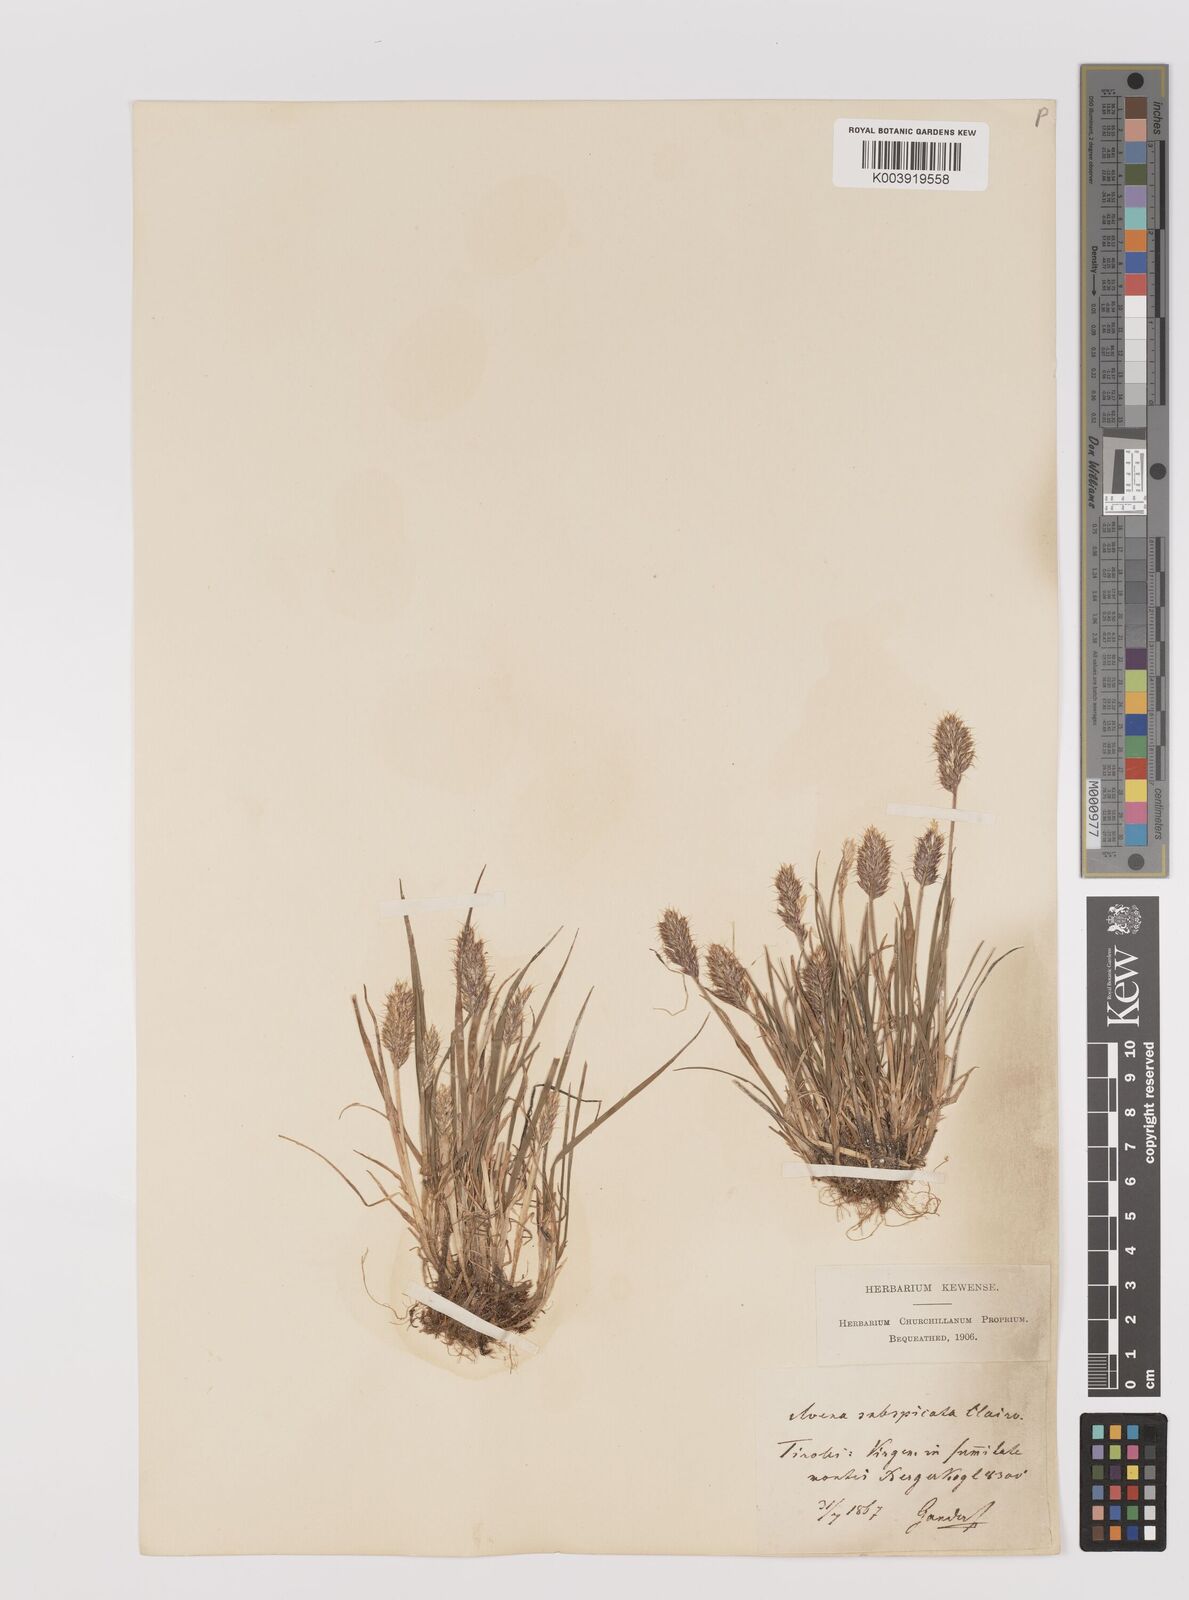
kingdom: Plantae
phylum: Tracheophyta
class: Liliopsida
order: Poales
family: Poaceae
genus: Koeleria
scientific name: Koeleria spicata
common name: Mountain trisetum
